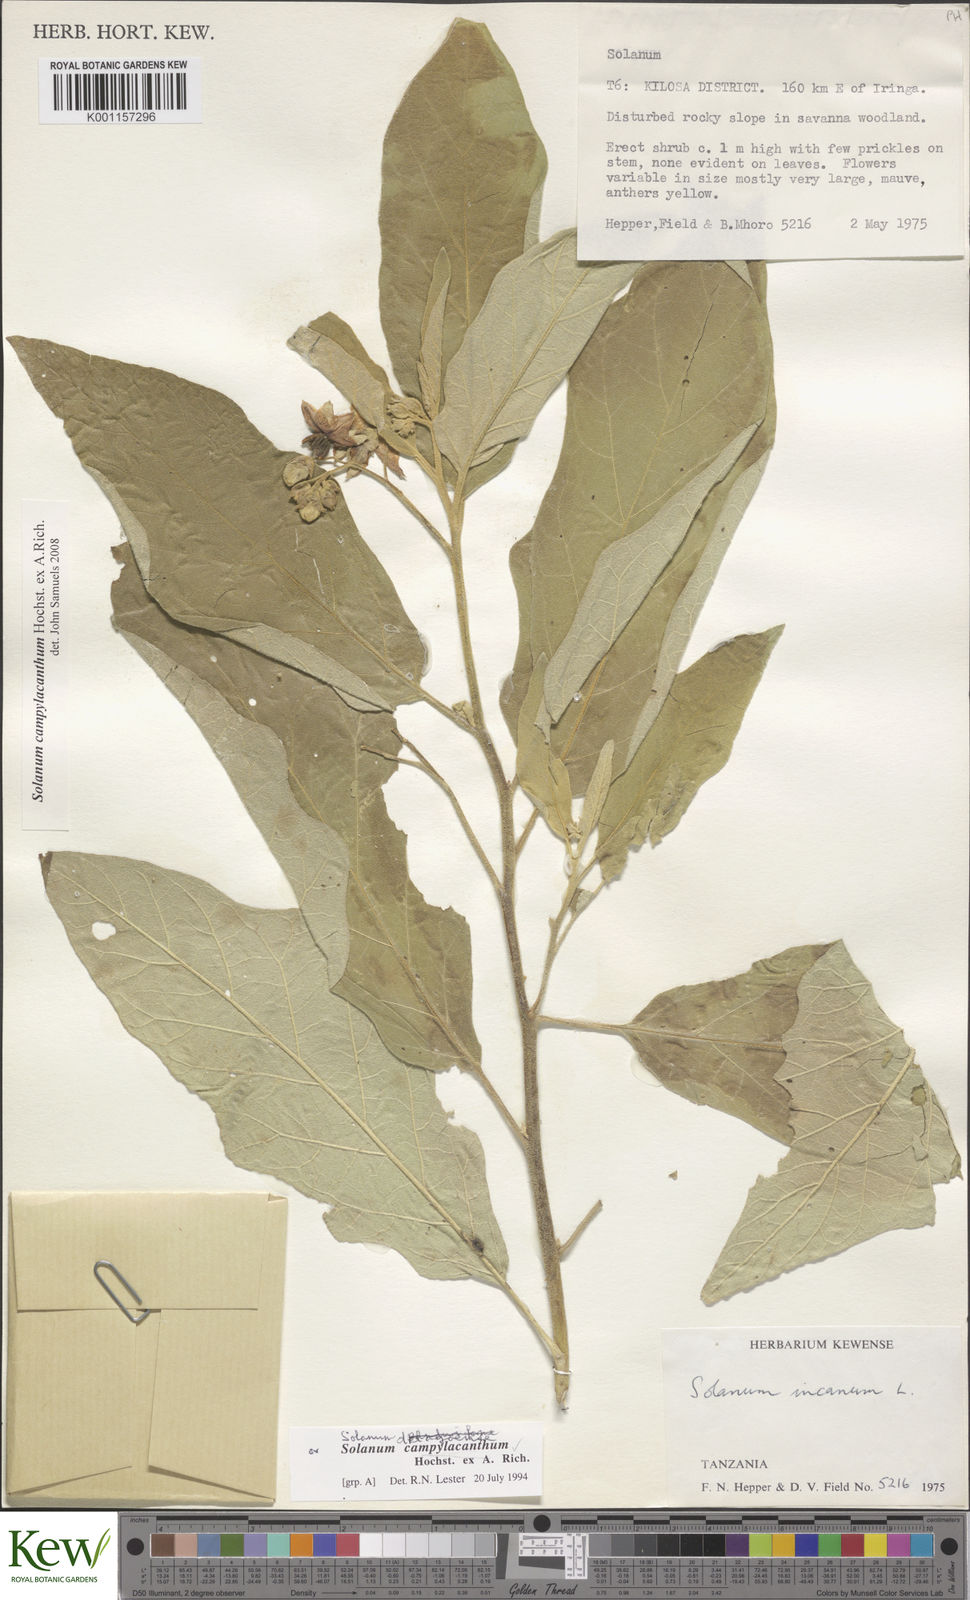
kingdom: Plantae
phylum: Tracheophyta
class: Magnoliopsida
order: Solanales
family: Solanaceae
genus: Solanum
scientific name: Solanum campylacanthum
